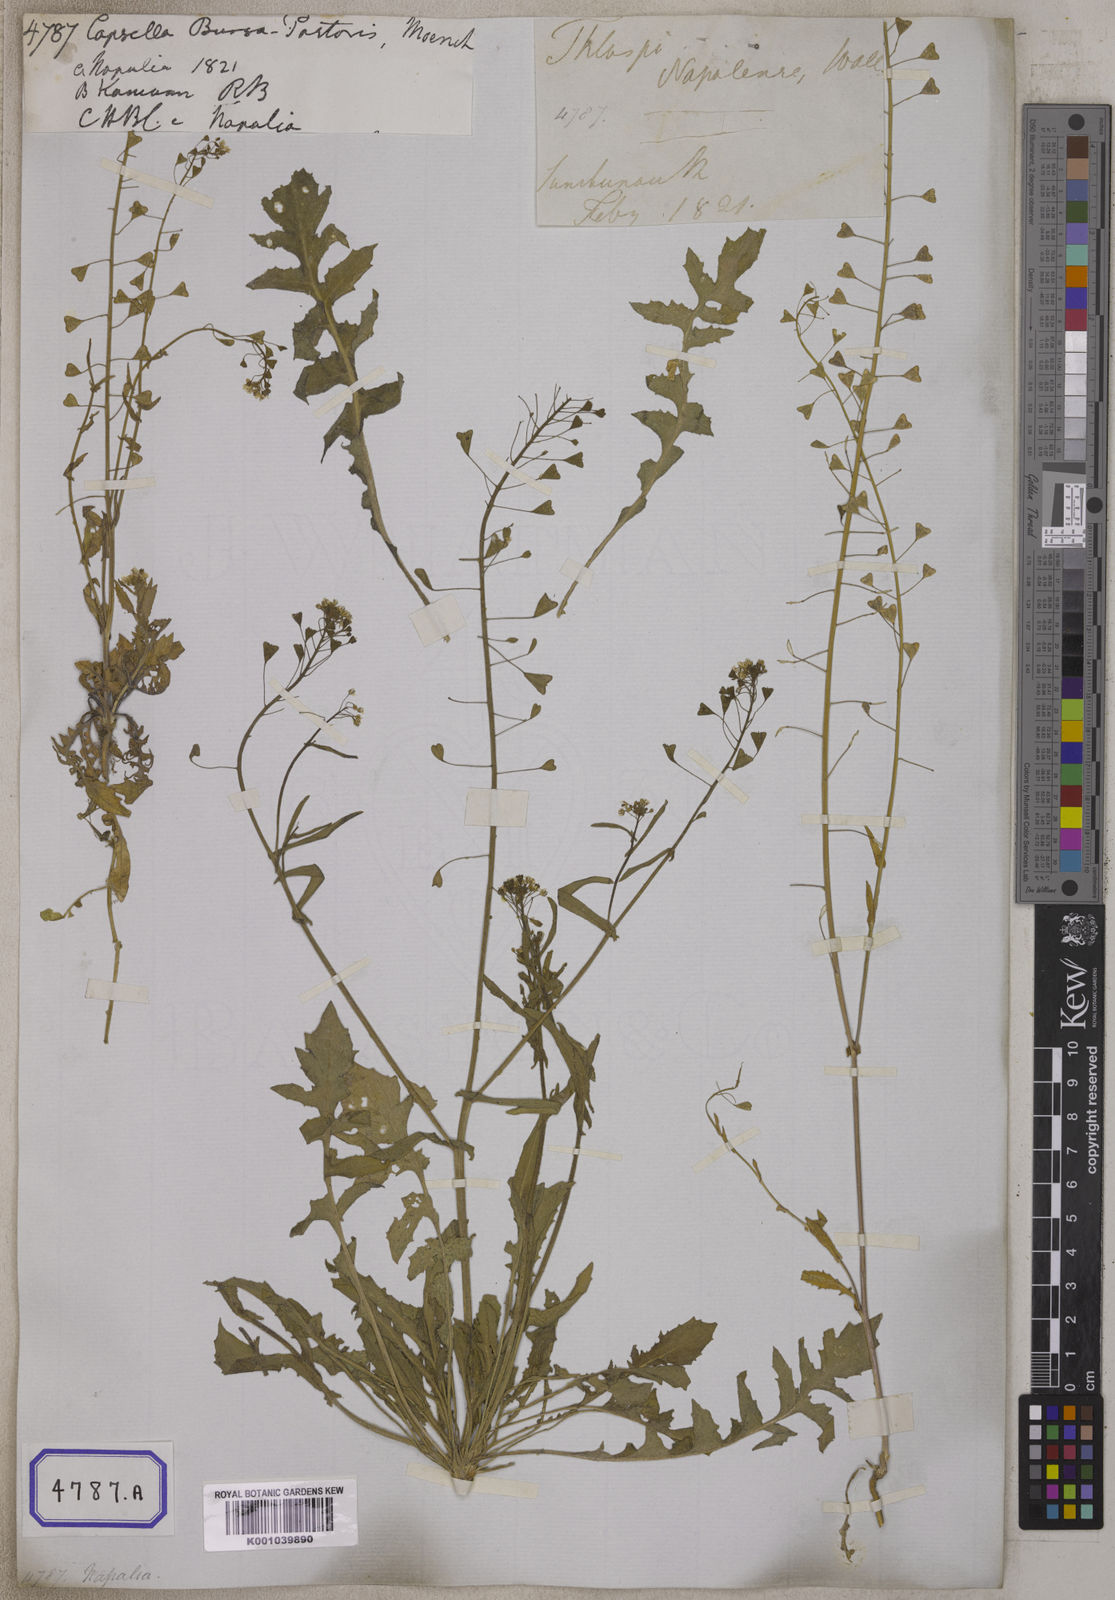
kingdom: Plantae
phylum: Tracheophyta
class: Magnoliopsida
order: Brassicales
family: Brassicaceae
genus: Capsella
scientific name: Capsella bursa-pastoris
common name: Shepherd's purse
